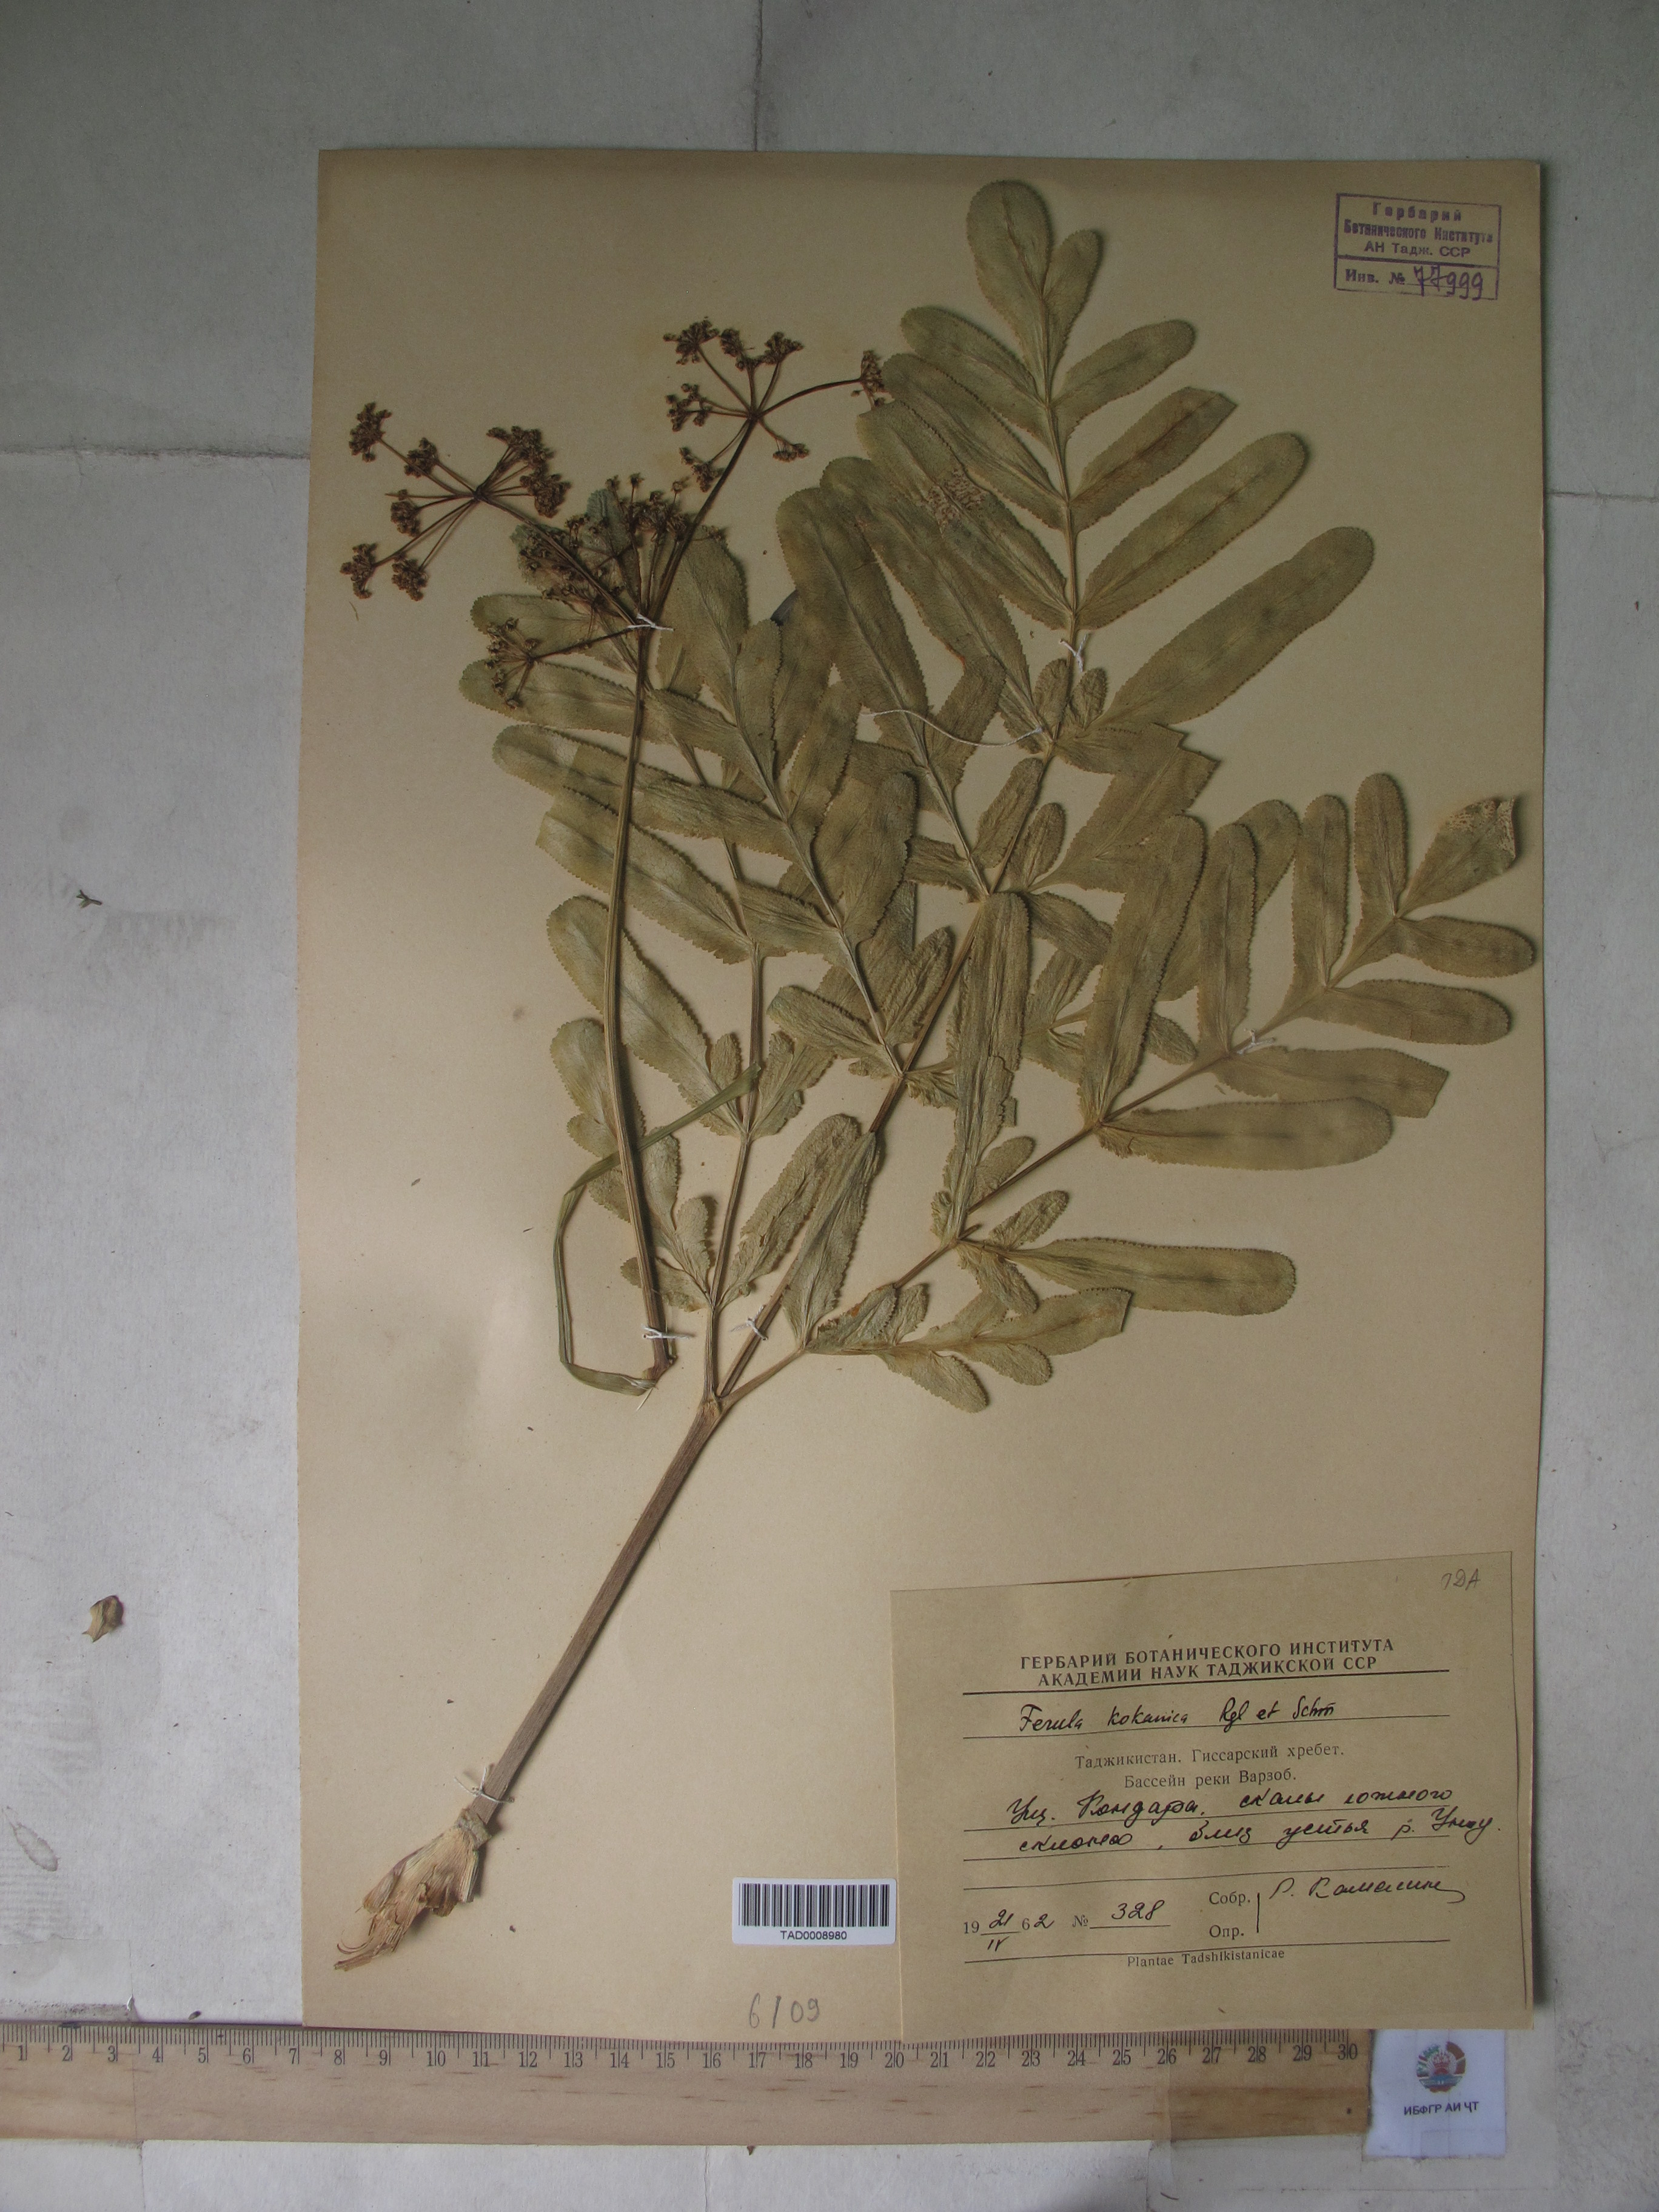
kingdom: Plantae
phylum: Tracheophyta
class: Magnoliopsida
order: Apiales
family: Apiaceae
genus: Ferula
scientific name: Ferula kokanica
